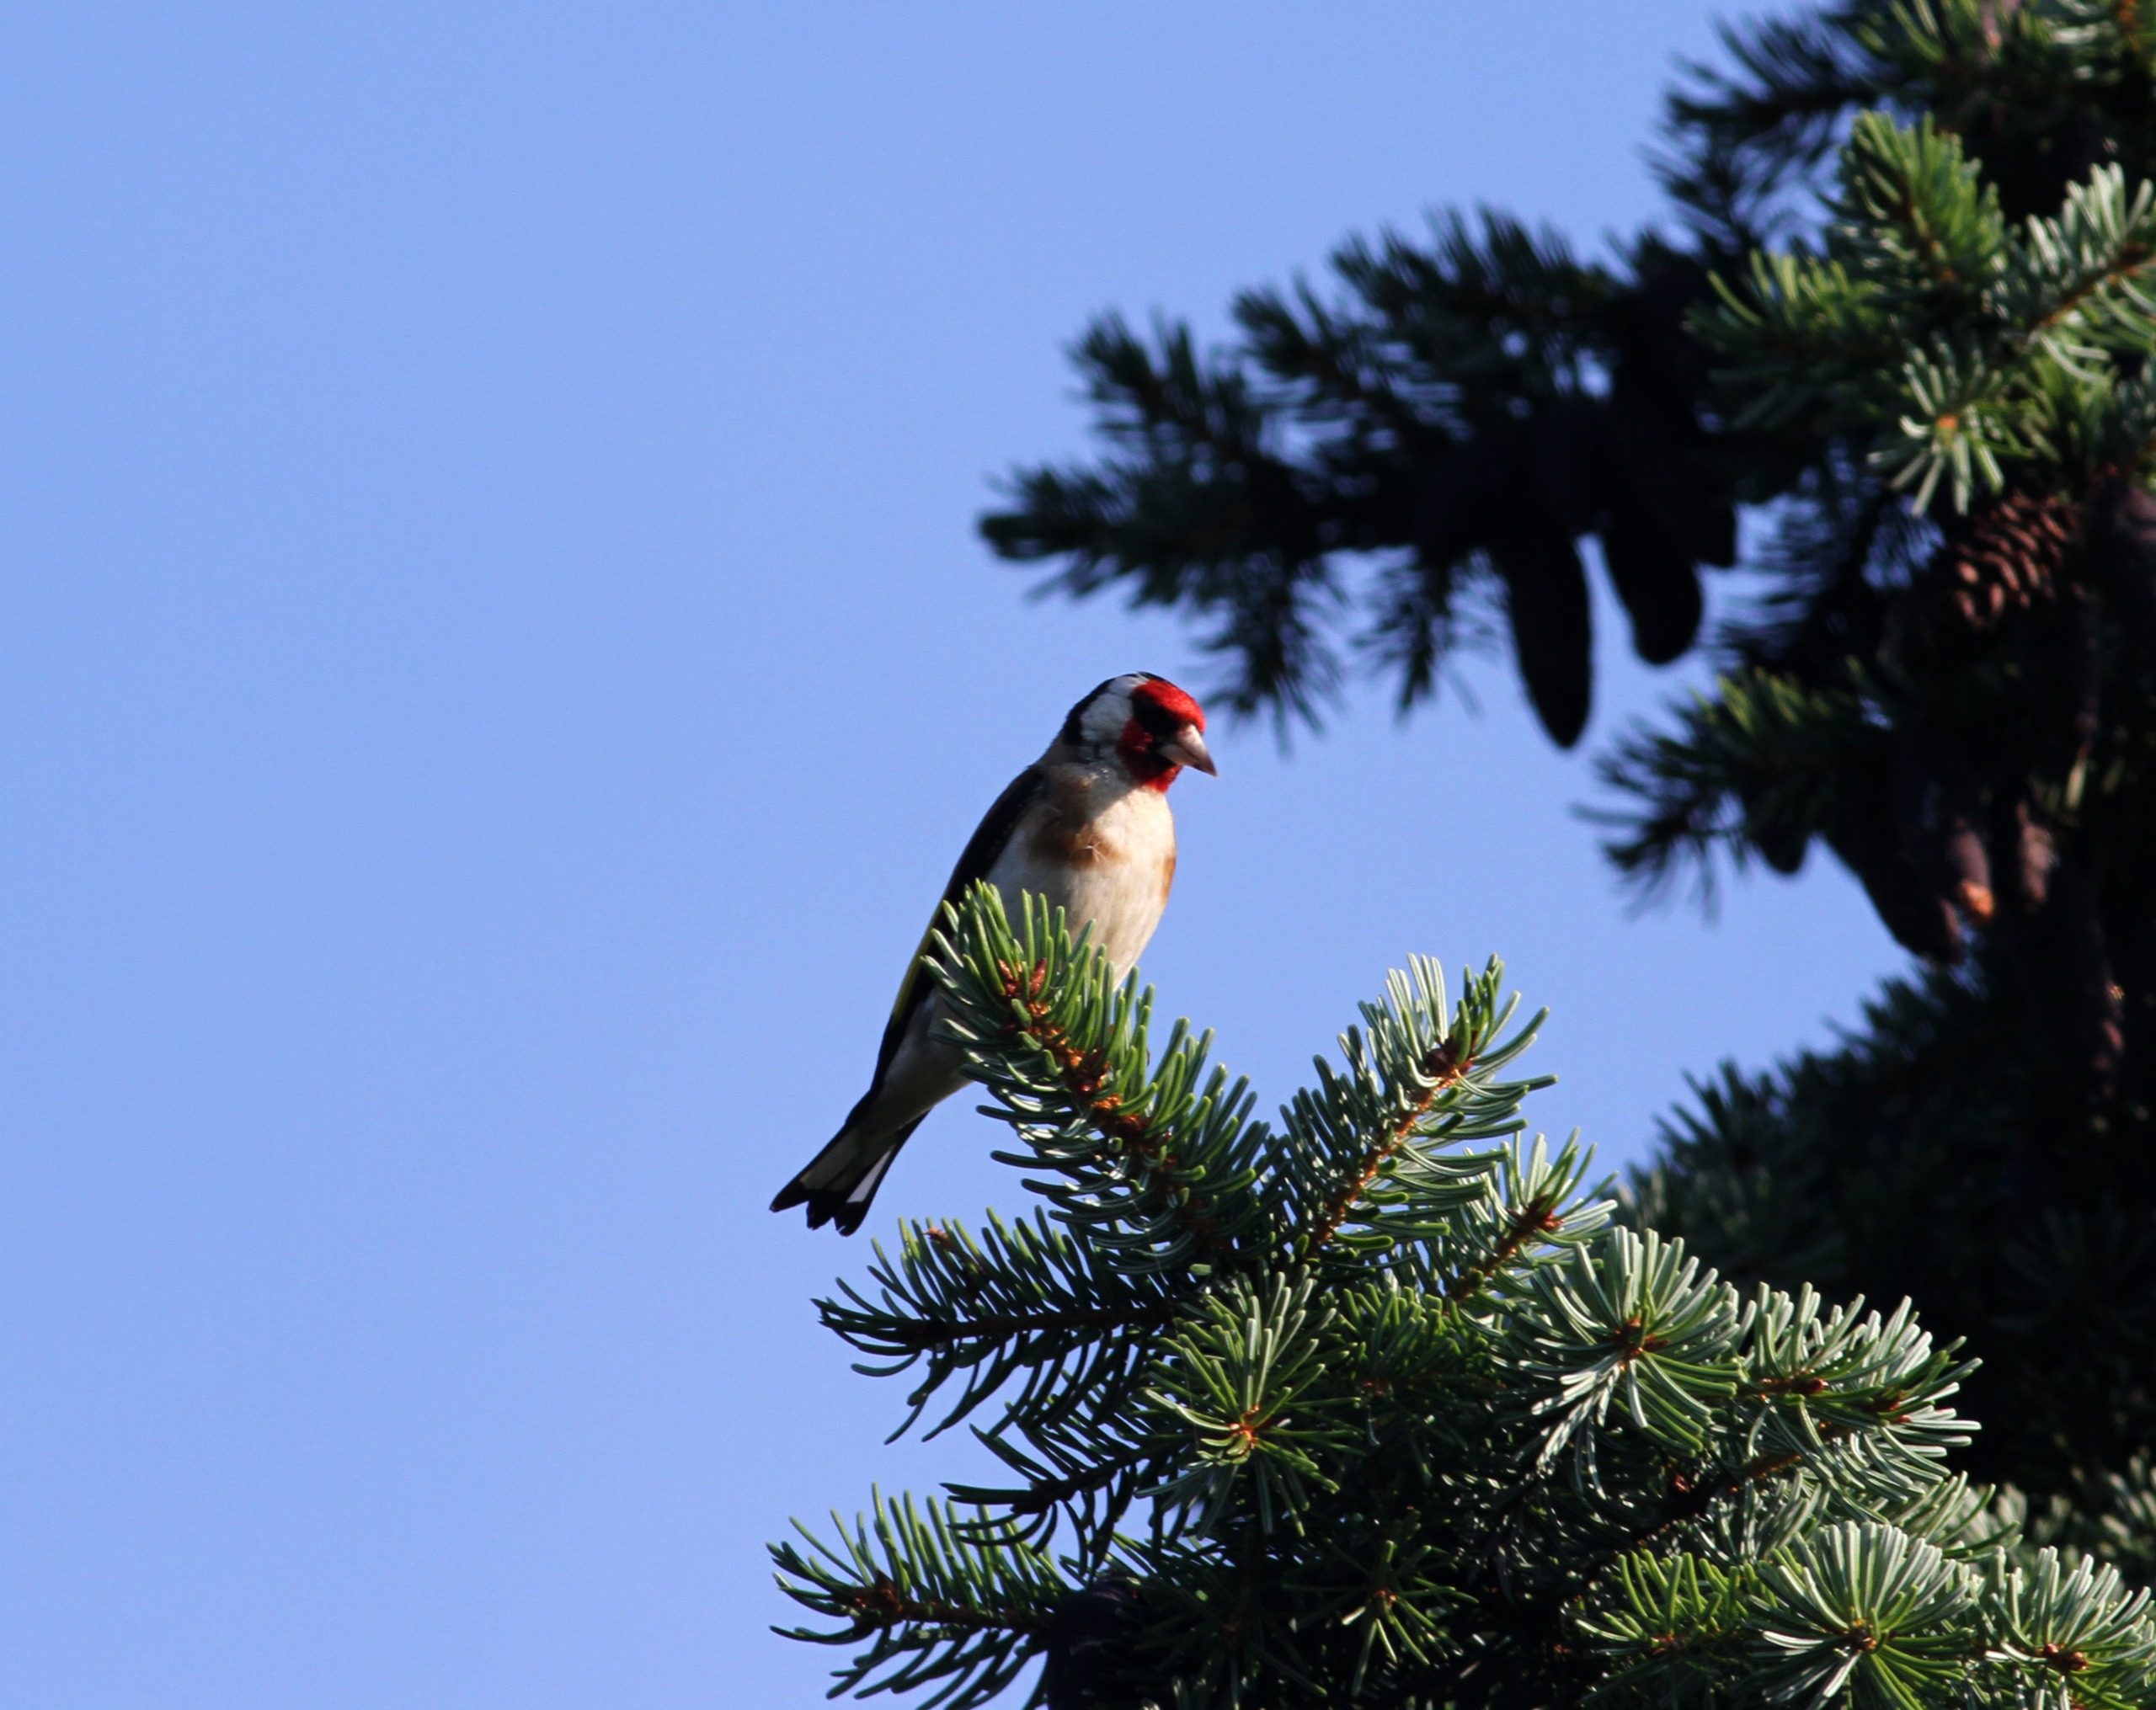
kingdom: Animalia
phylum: Chordata
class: Aves
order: Passeriformes
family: Fringillidae
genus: Carduelis
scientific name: Carduelis carduelis
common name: Stillits
